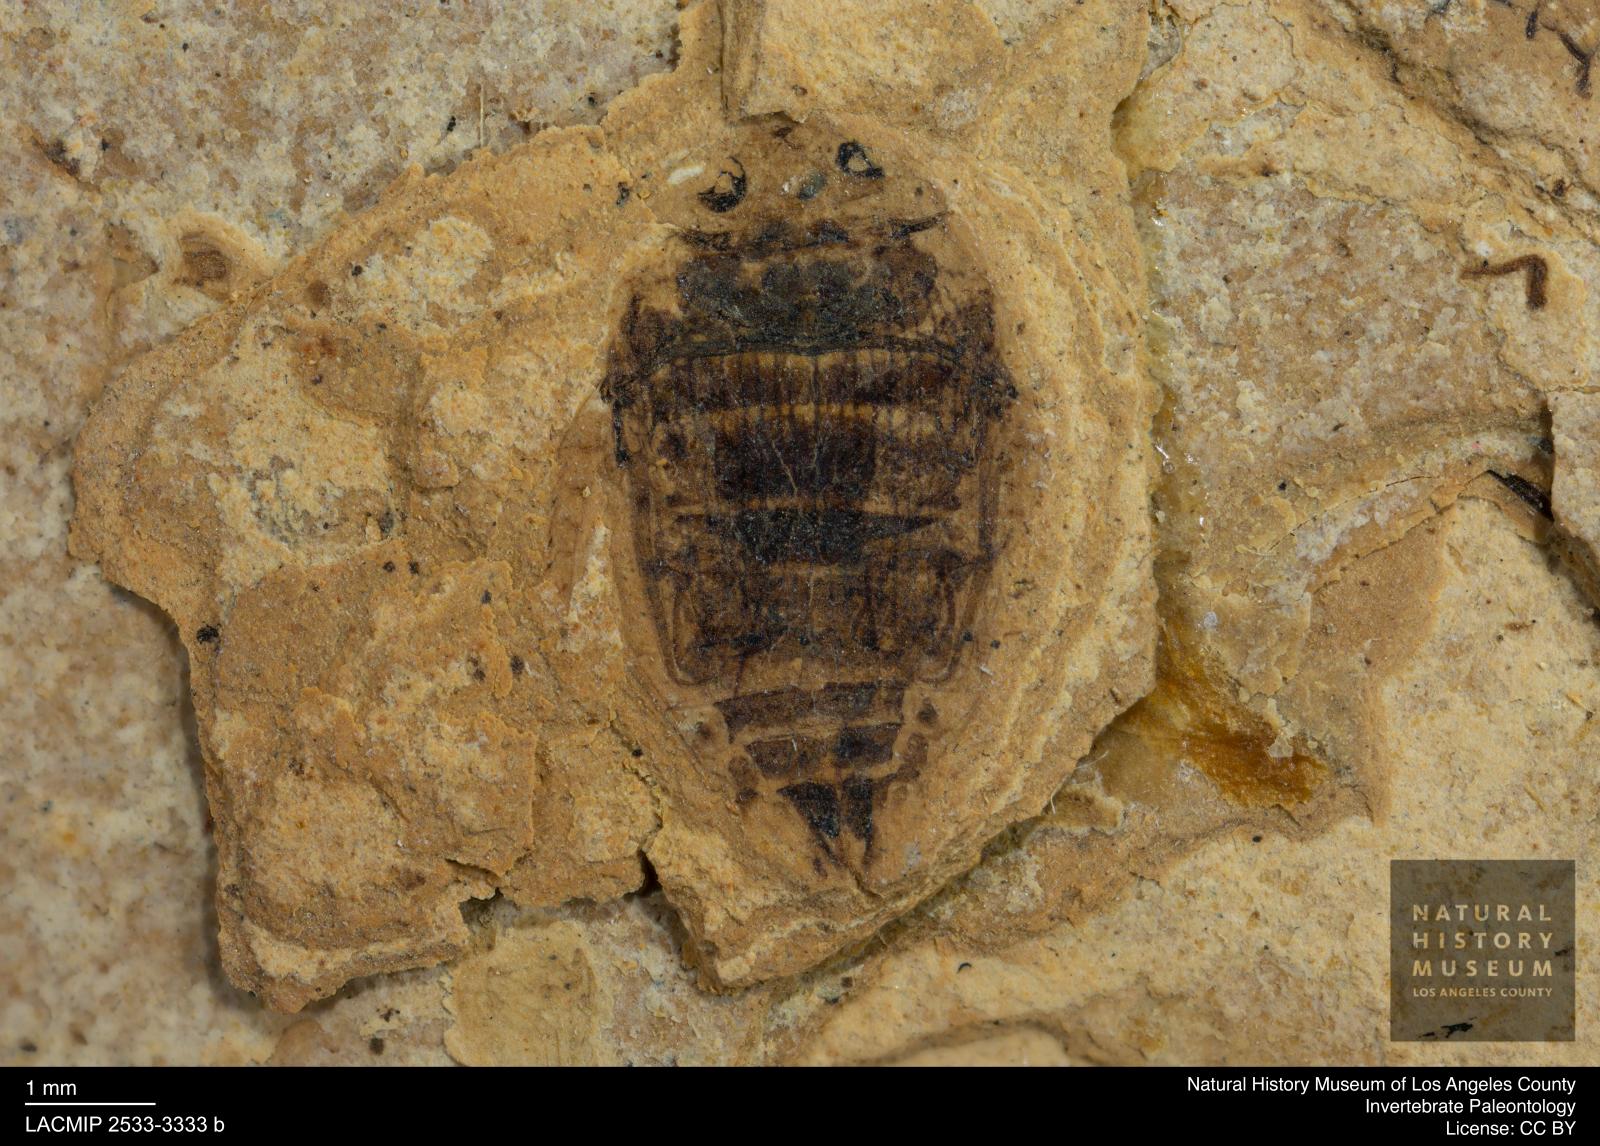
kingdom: Animalia
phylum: Arthropoda
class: Insecta
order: Coleoptera
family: Dytiscidae
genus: Laccophilus
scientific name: Laccophilus Palaeogyrinus strigatus
